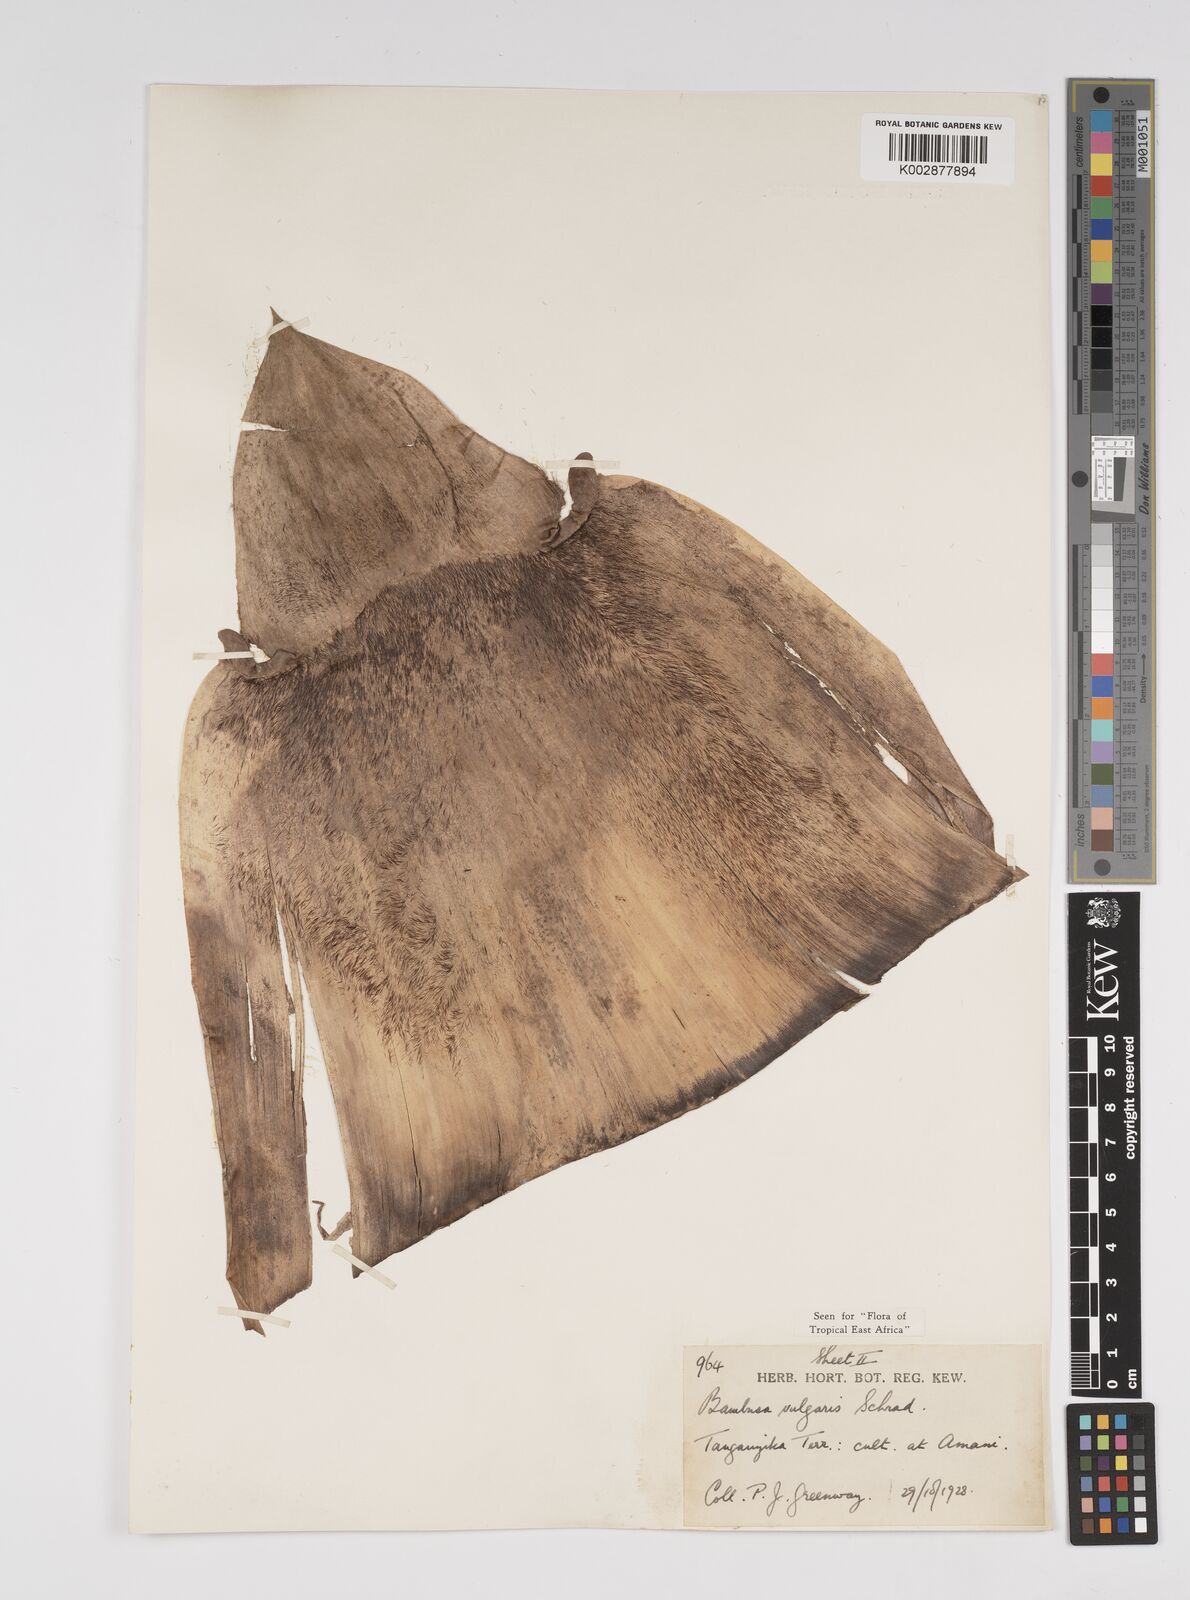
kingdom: Plantae
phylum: Tracheophyta
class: Liliopsida
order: Poales
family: Poaceae
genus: Bambusa
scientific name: Bambusa balcooa
